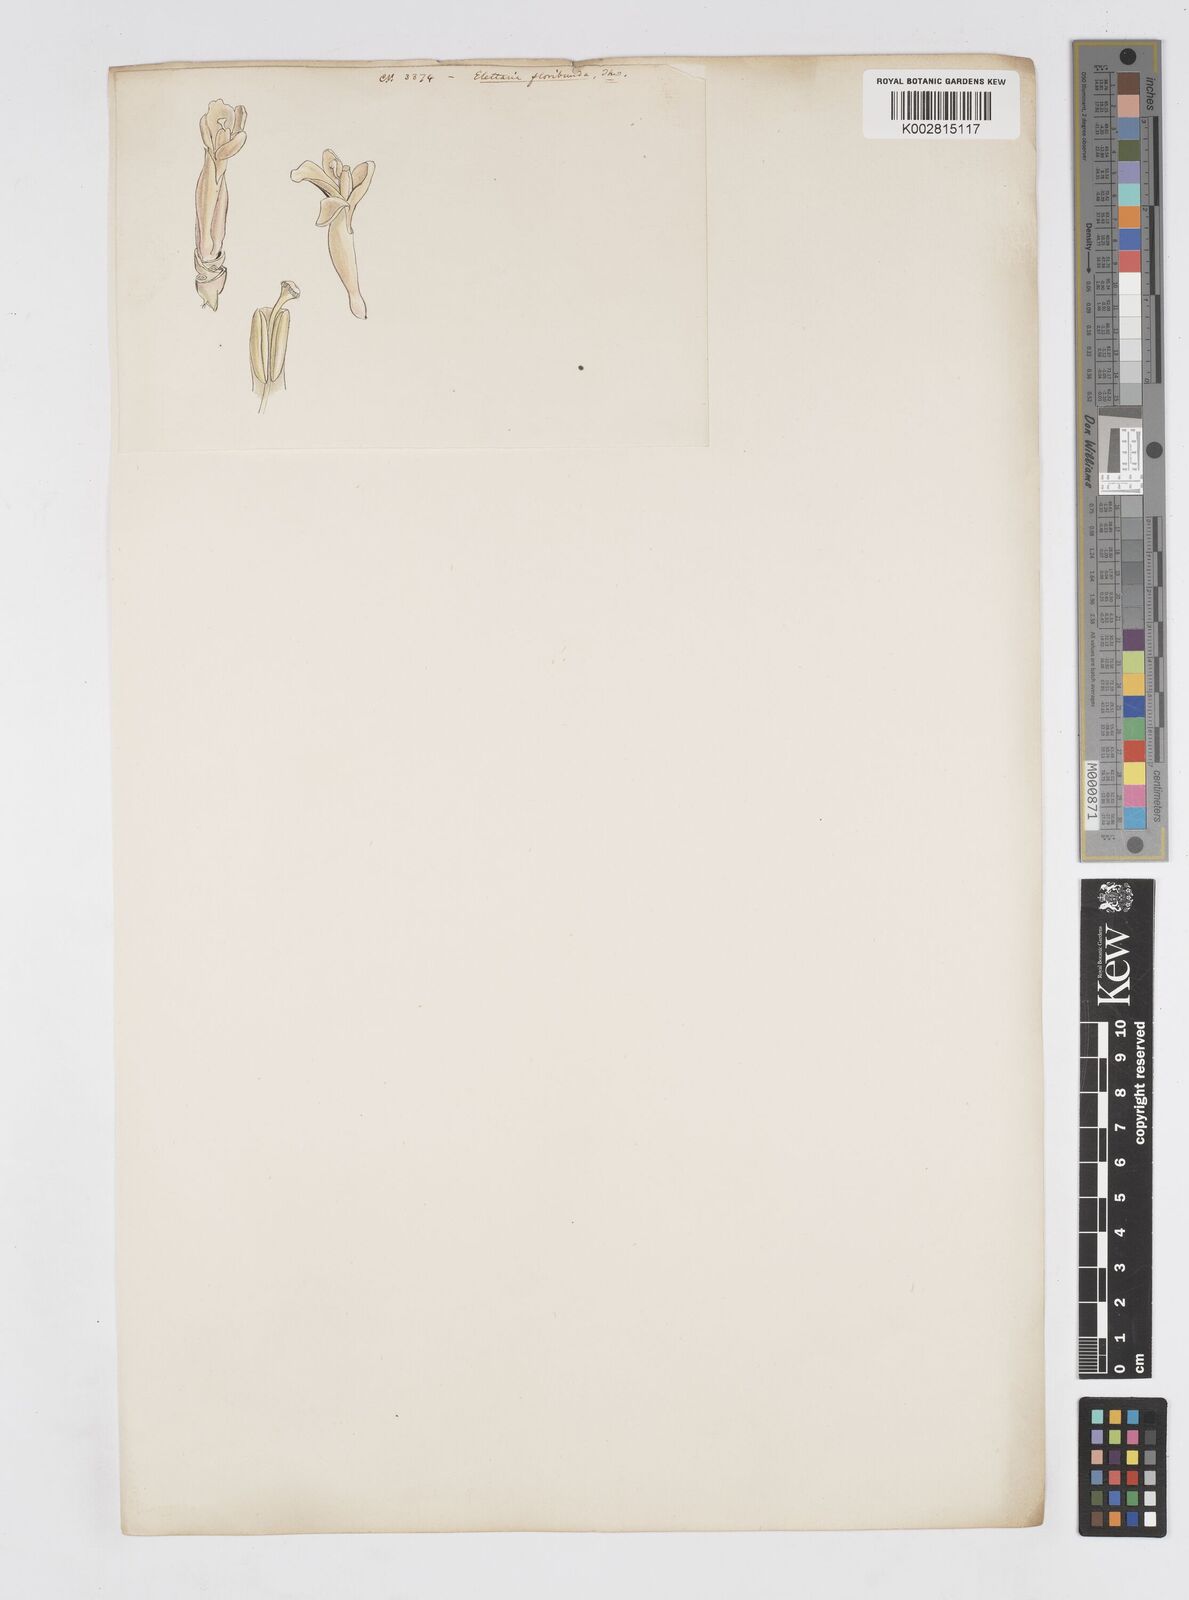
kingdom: Plantae
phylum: Tracheophyta
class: Liliopsida
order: Zingiberales
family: Zingiberaceae
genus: Alpinia
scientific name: Alpinia abundiflora
